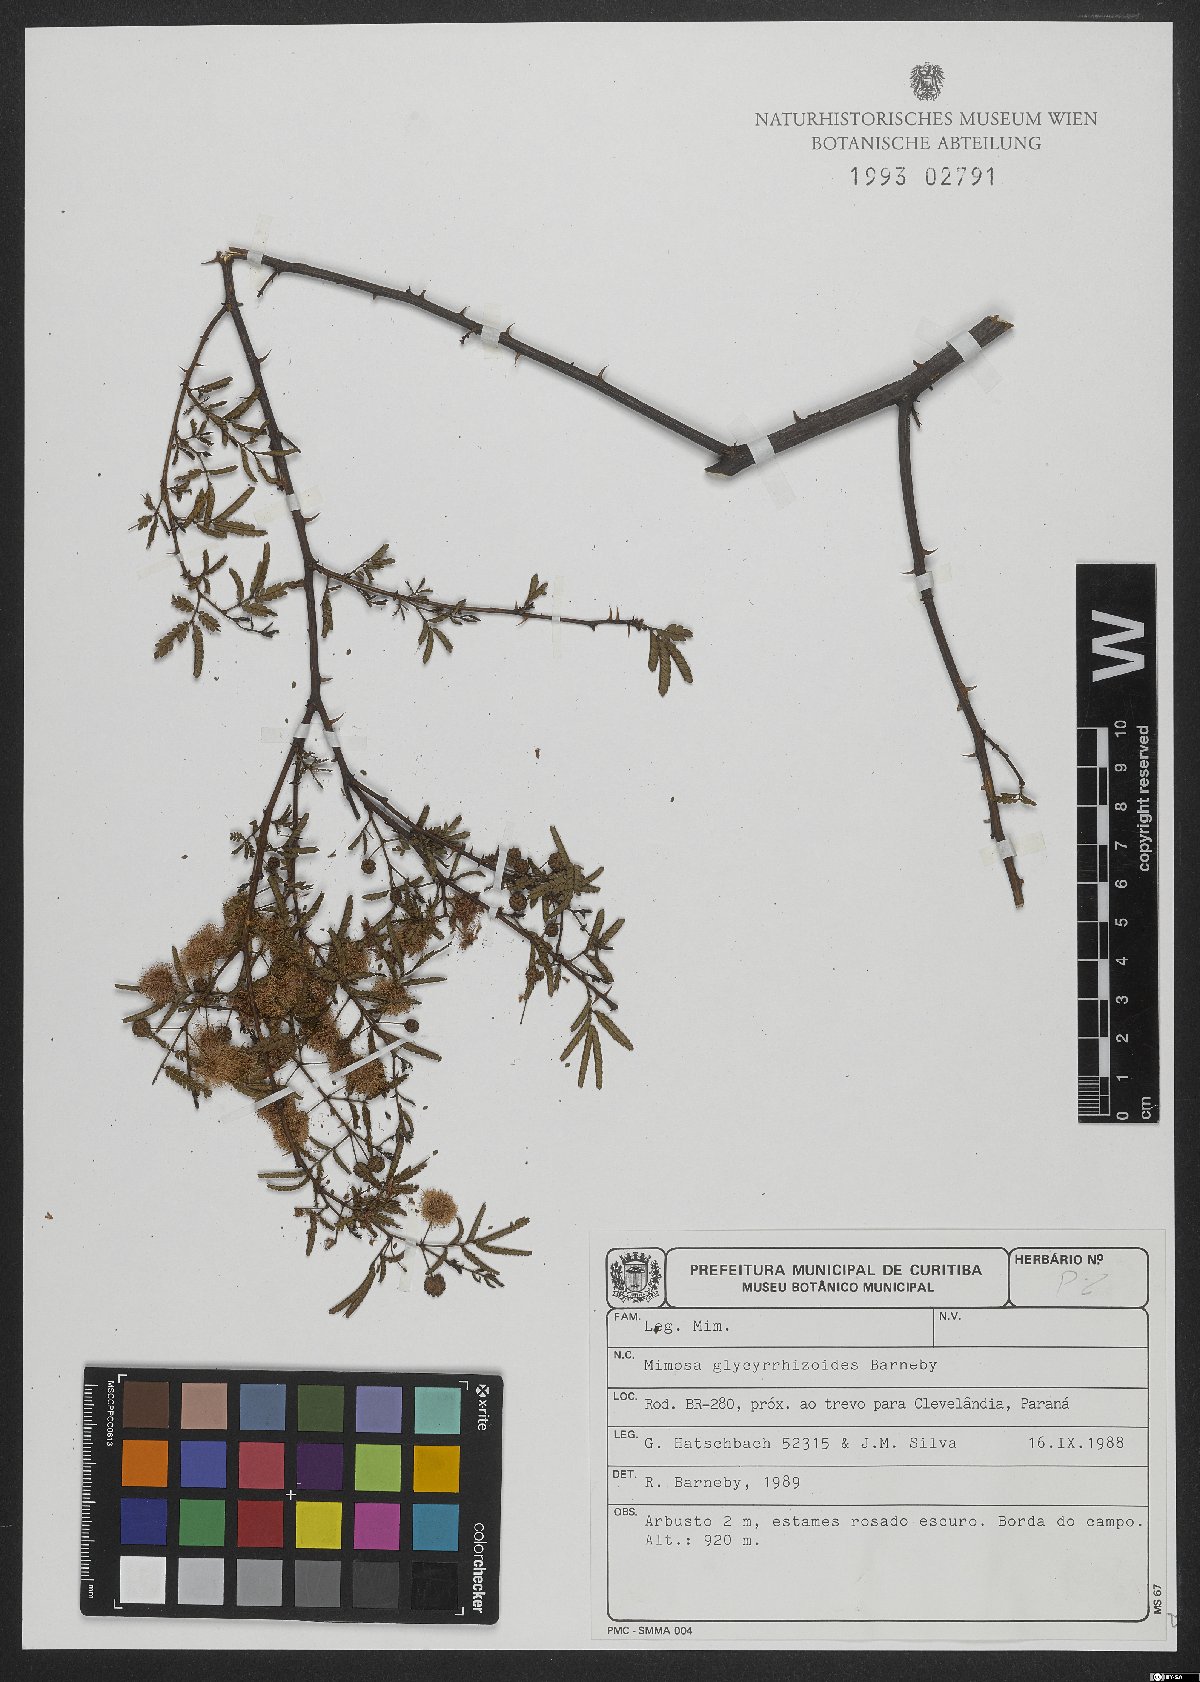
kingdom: Plantae
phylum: Tracheophyta
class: Magnoliopsida
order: Fabales
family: Fabaceae
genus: Mimosa
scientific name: Mimosa glycyrrhizoides
